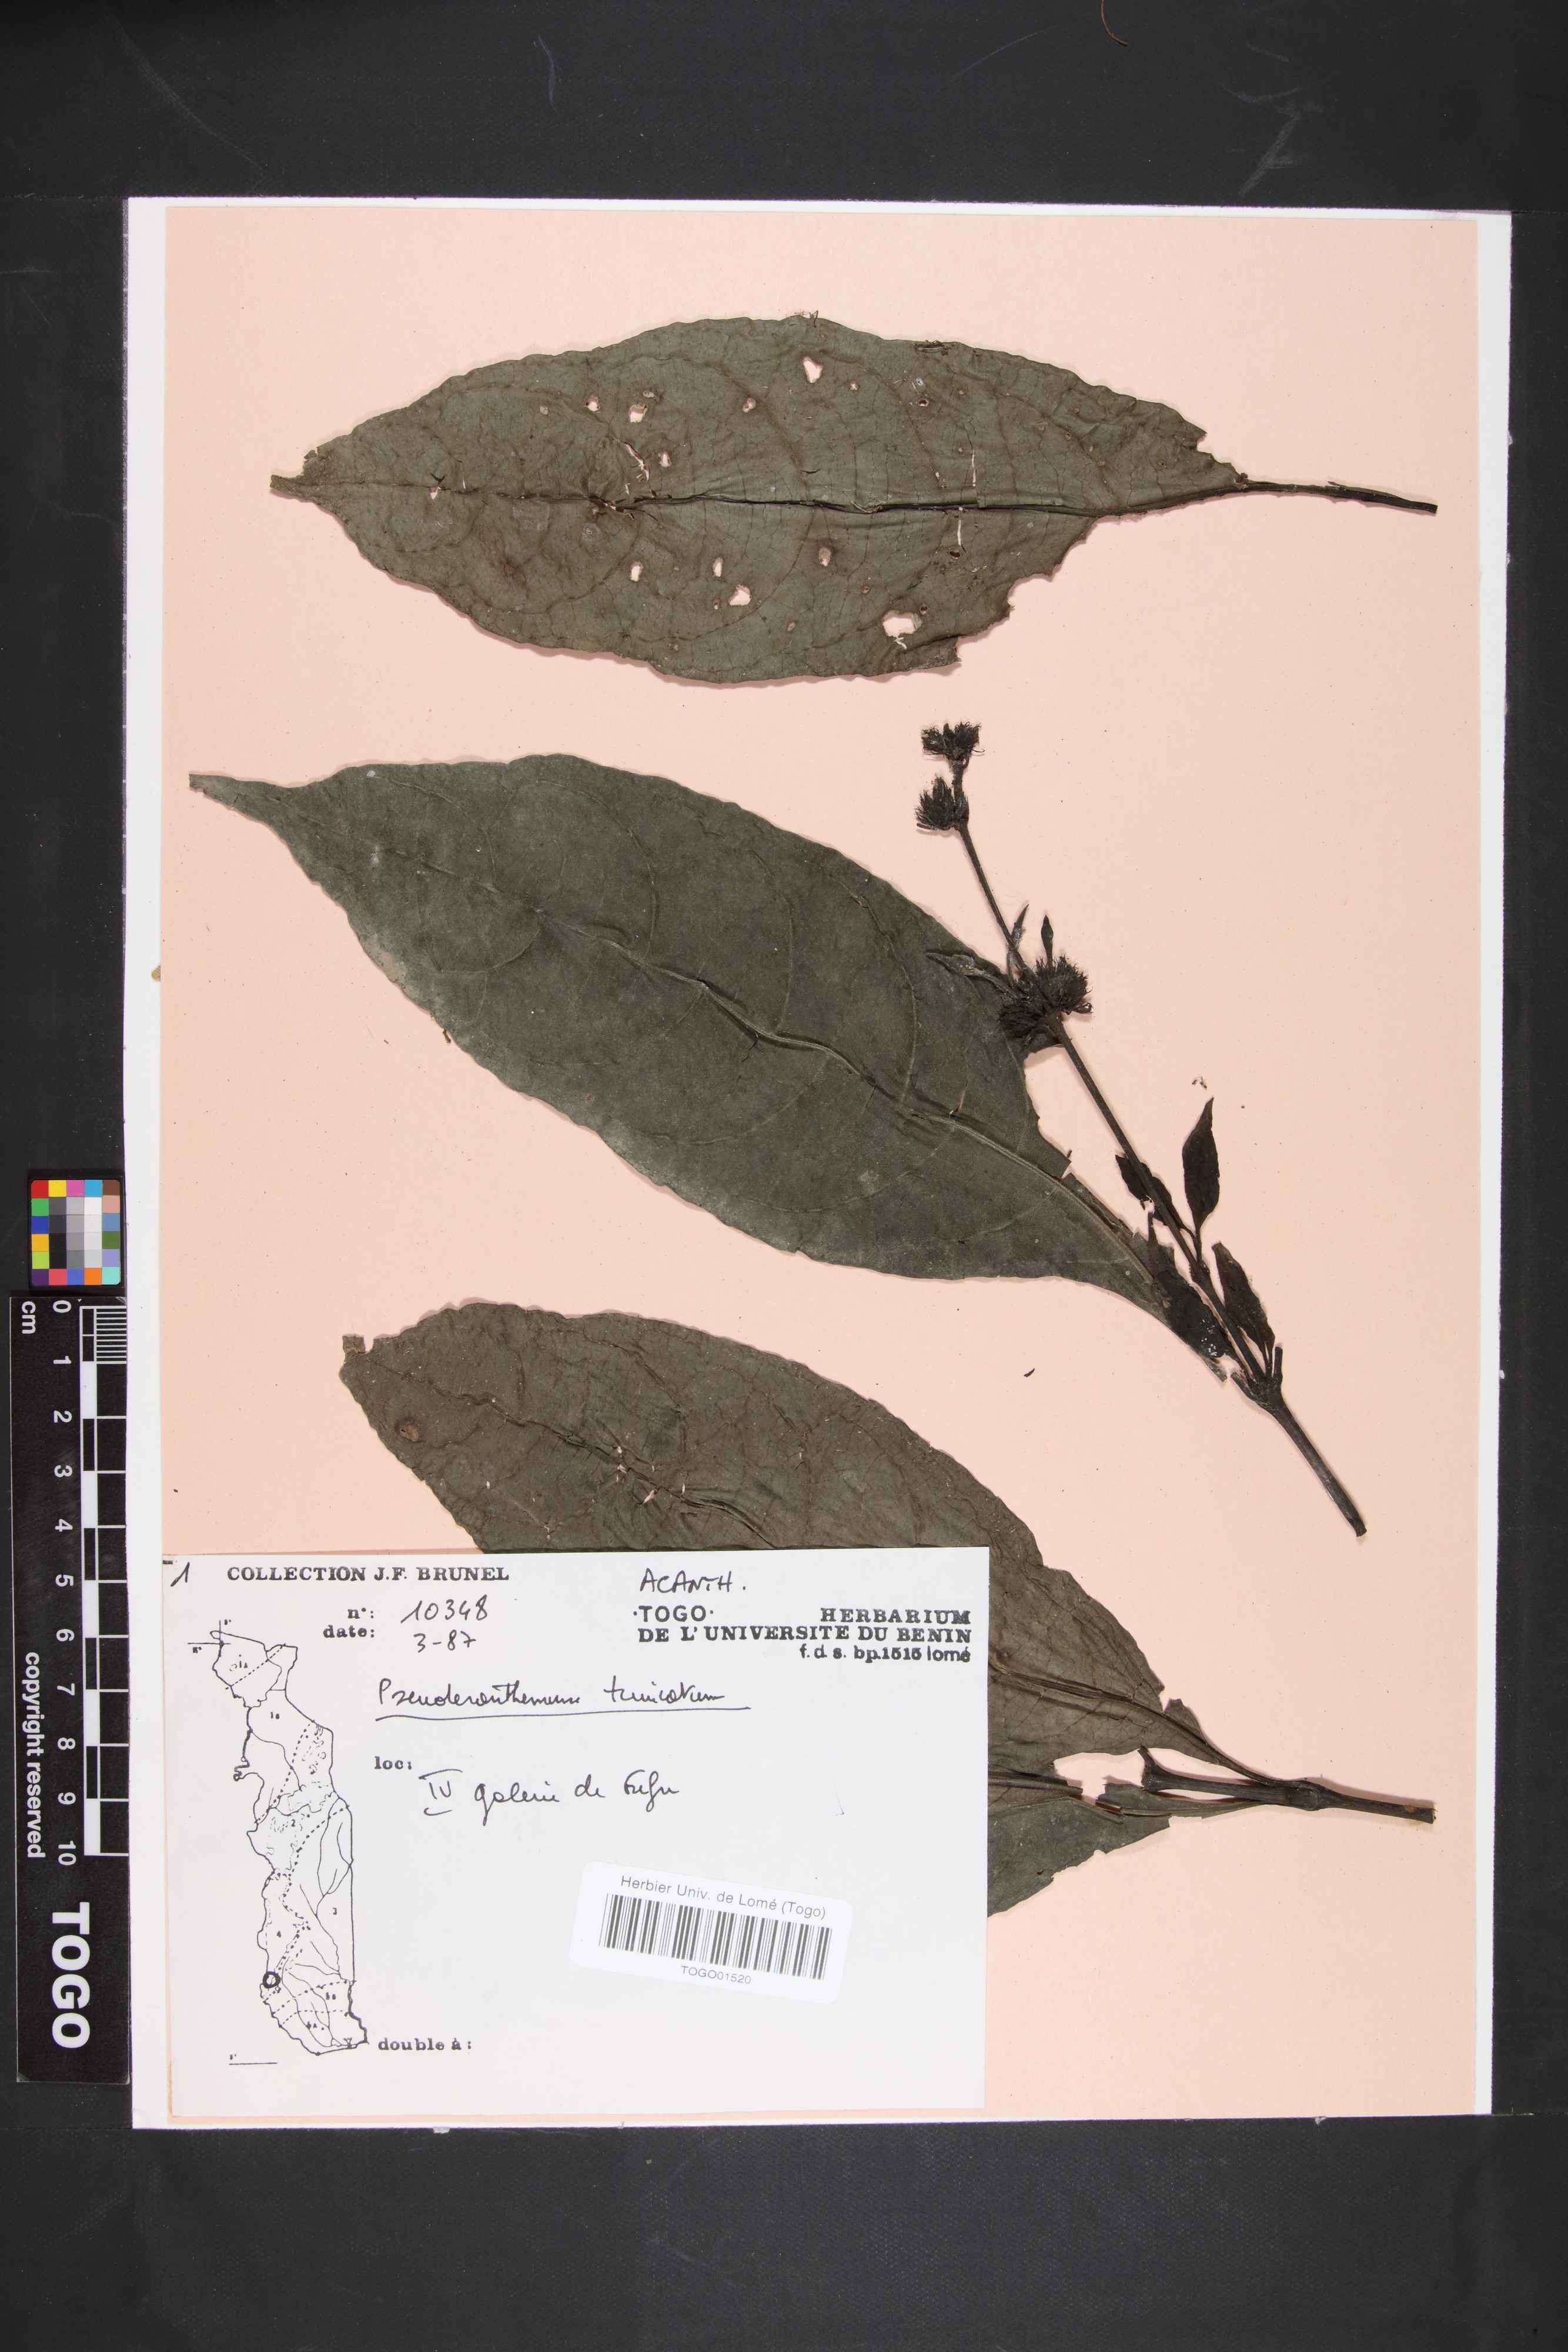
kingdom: Plantae
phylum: Tracheophyta
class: Magnoliopsida
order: Lamiales
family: Acanthaceae
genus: Pseuderanthemum
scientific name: Pseuderanthemum tunicatum
